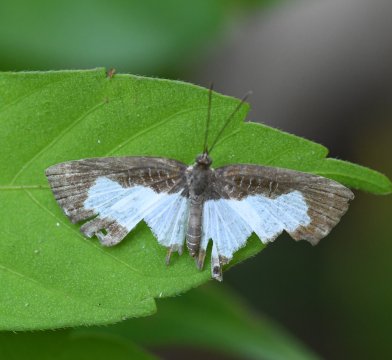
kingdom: Animalia
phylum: Arthropoda
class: Insecta
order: Lepidoptera
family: Riodinidae
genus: Juditha
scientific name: Juditha caucana
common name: Molpe Metalmark
